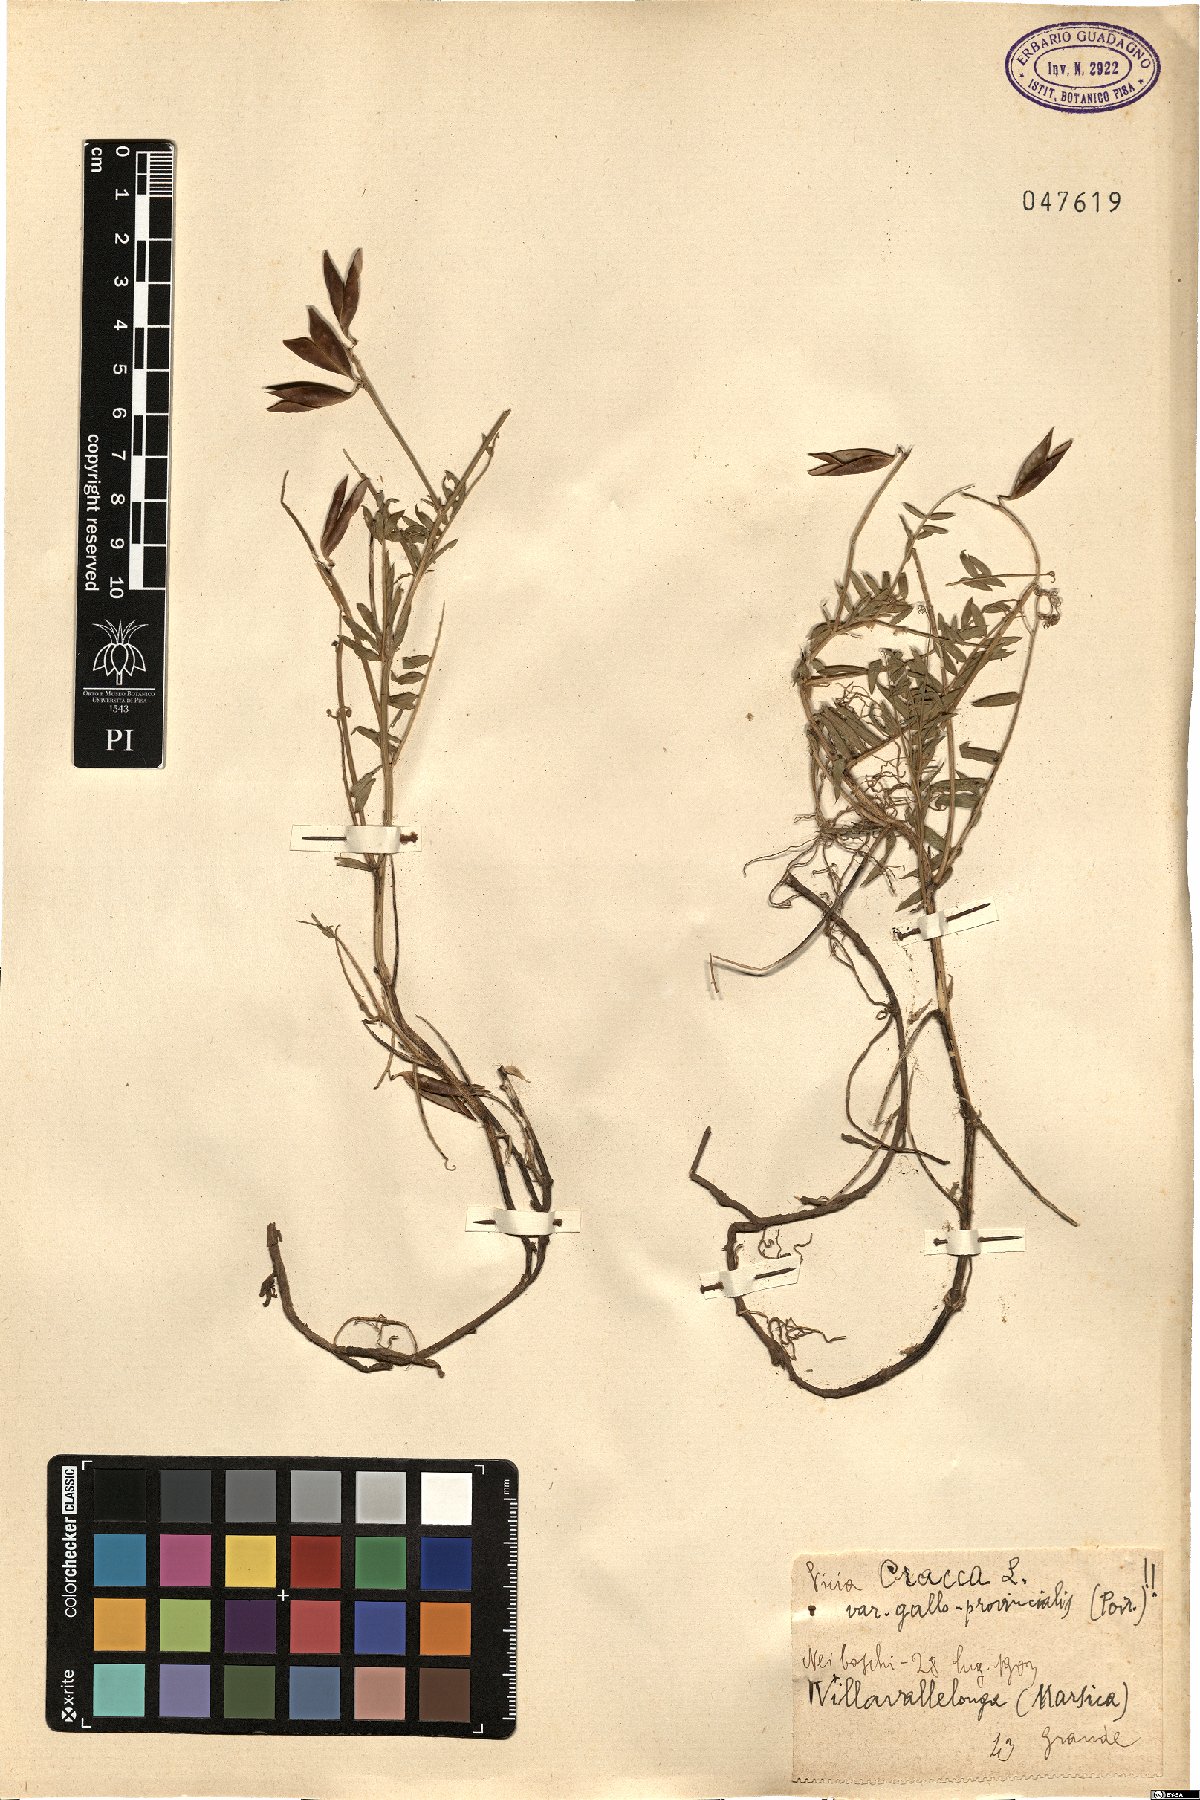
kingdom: Plantae
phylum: Tracheophyta
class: Magnoliopsida
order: Fabales
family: Fabaceae
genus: Vicia
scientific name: Vicia incana
